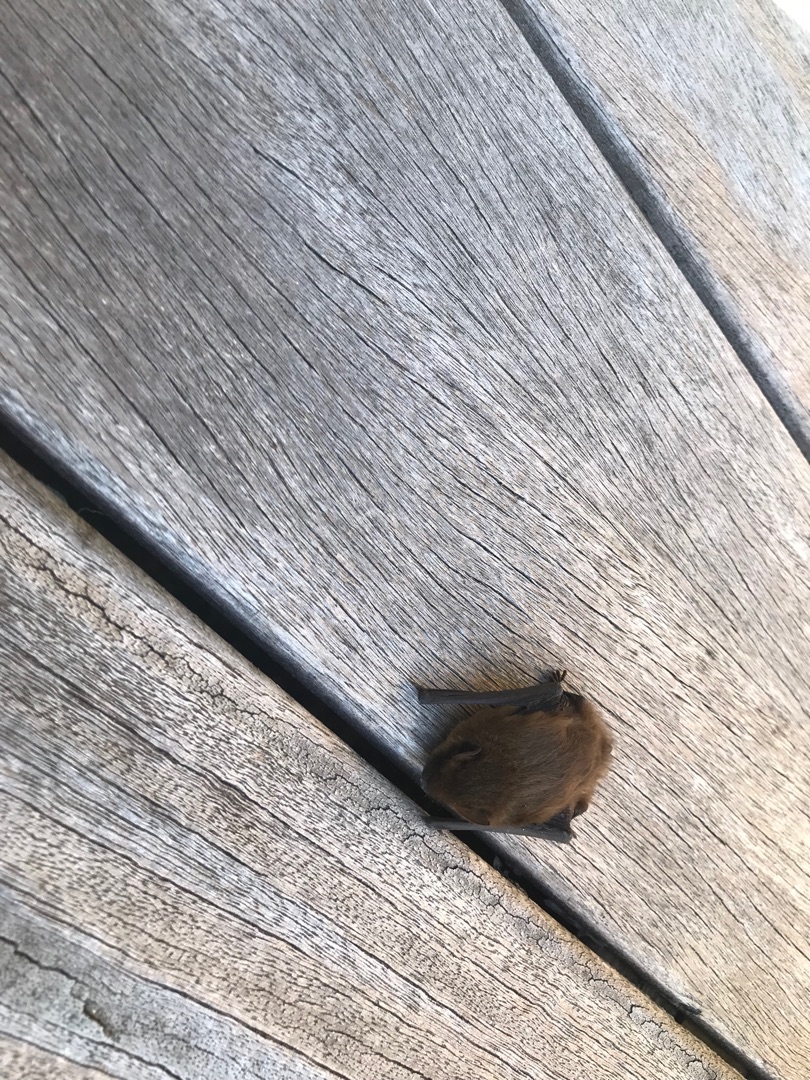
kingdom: Animalia
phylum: Chordata
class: Mammalia
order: Chiroptera
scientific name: Chiroptera
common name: Flagermus
